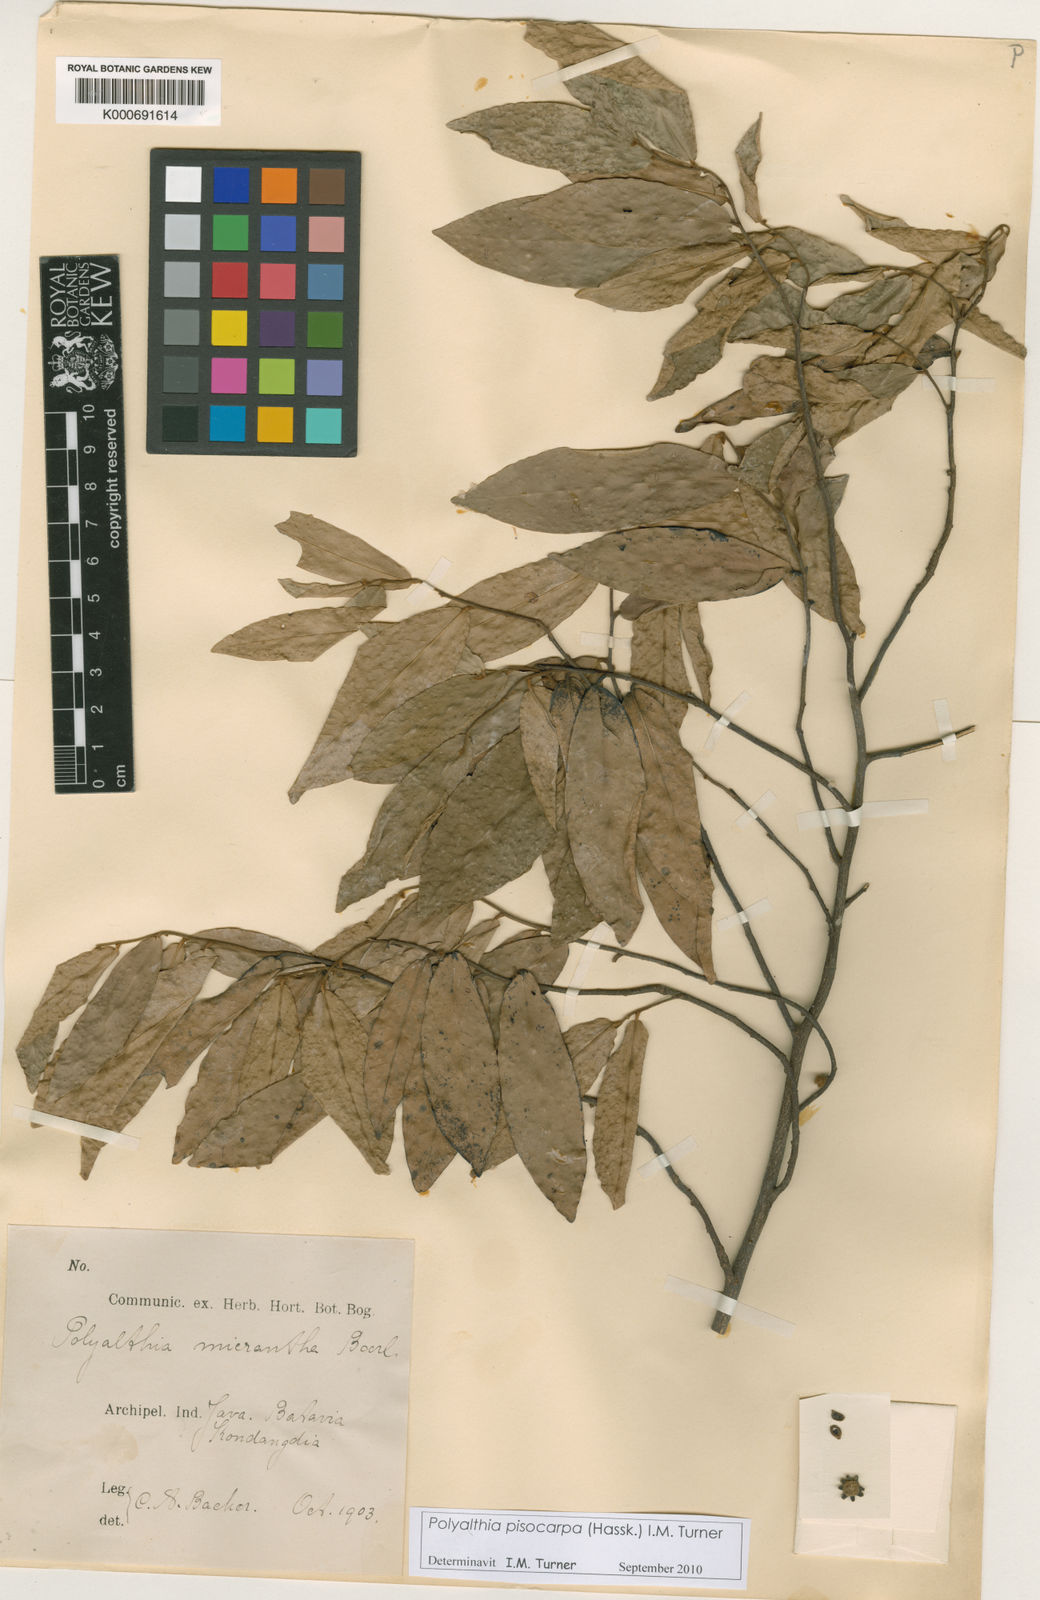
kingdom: Plantae
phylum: Tracheophyta
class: Magnoliopsida
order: Magnoliales
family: Annonaceae
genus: Polyalthia
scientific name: Polyalthia pisocarpa
